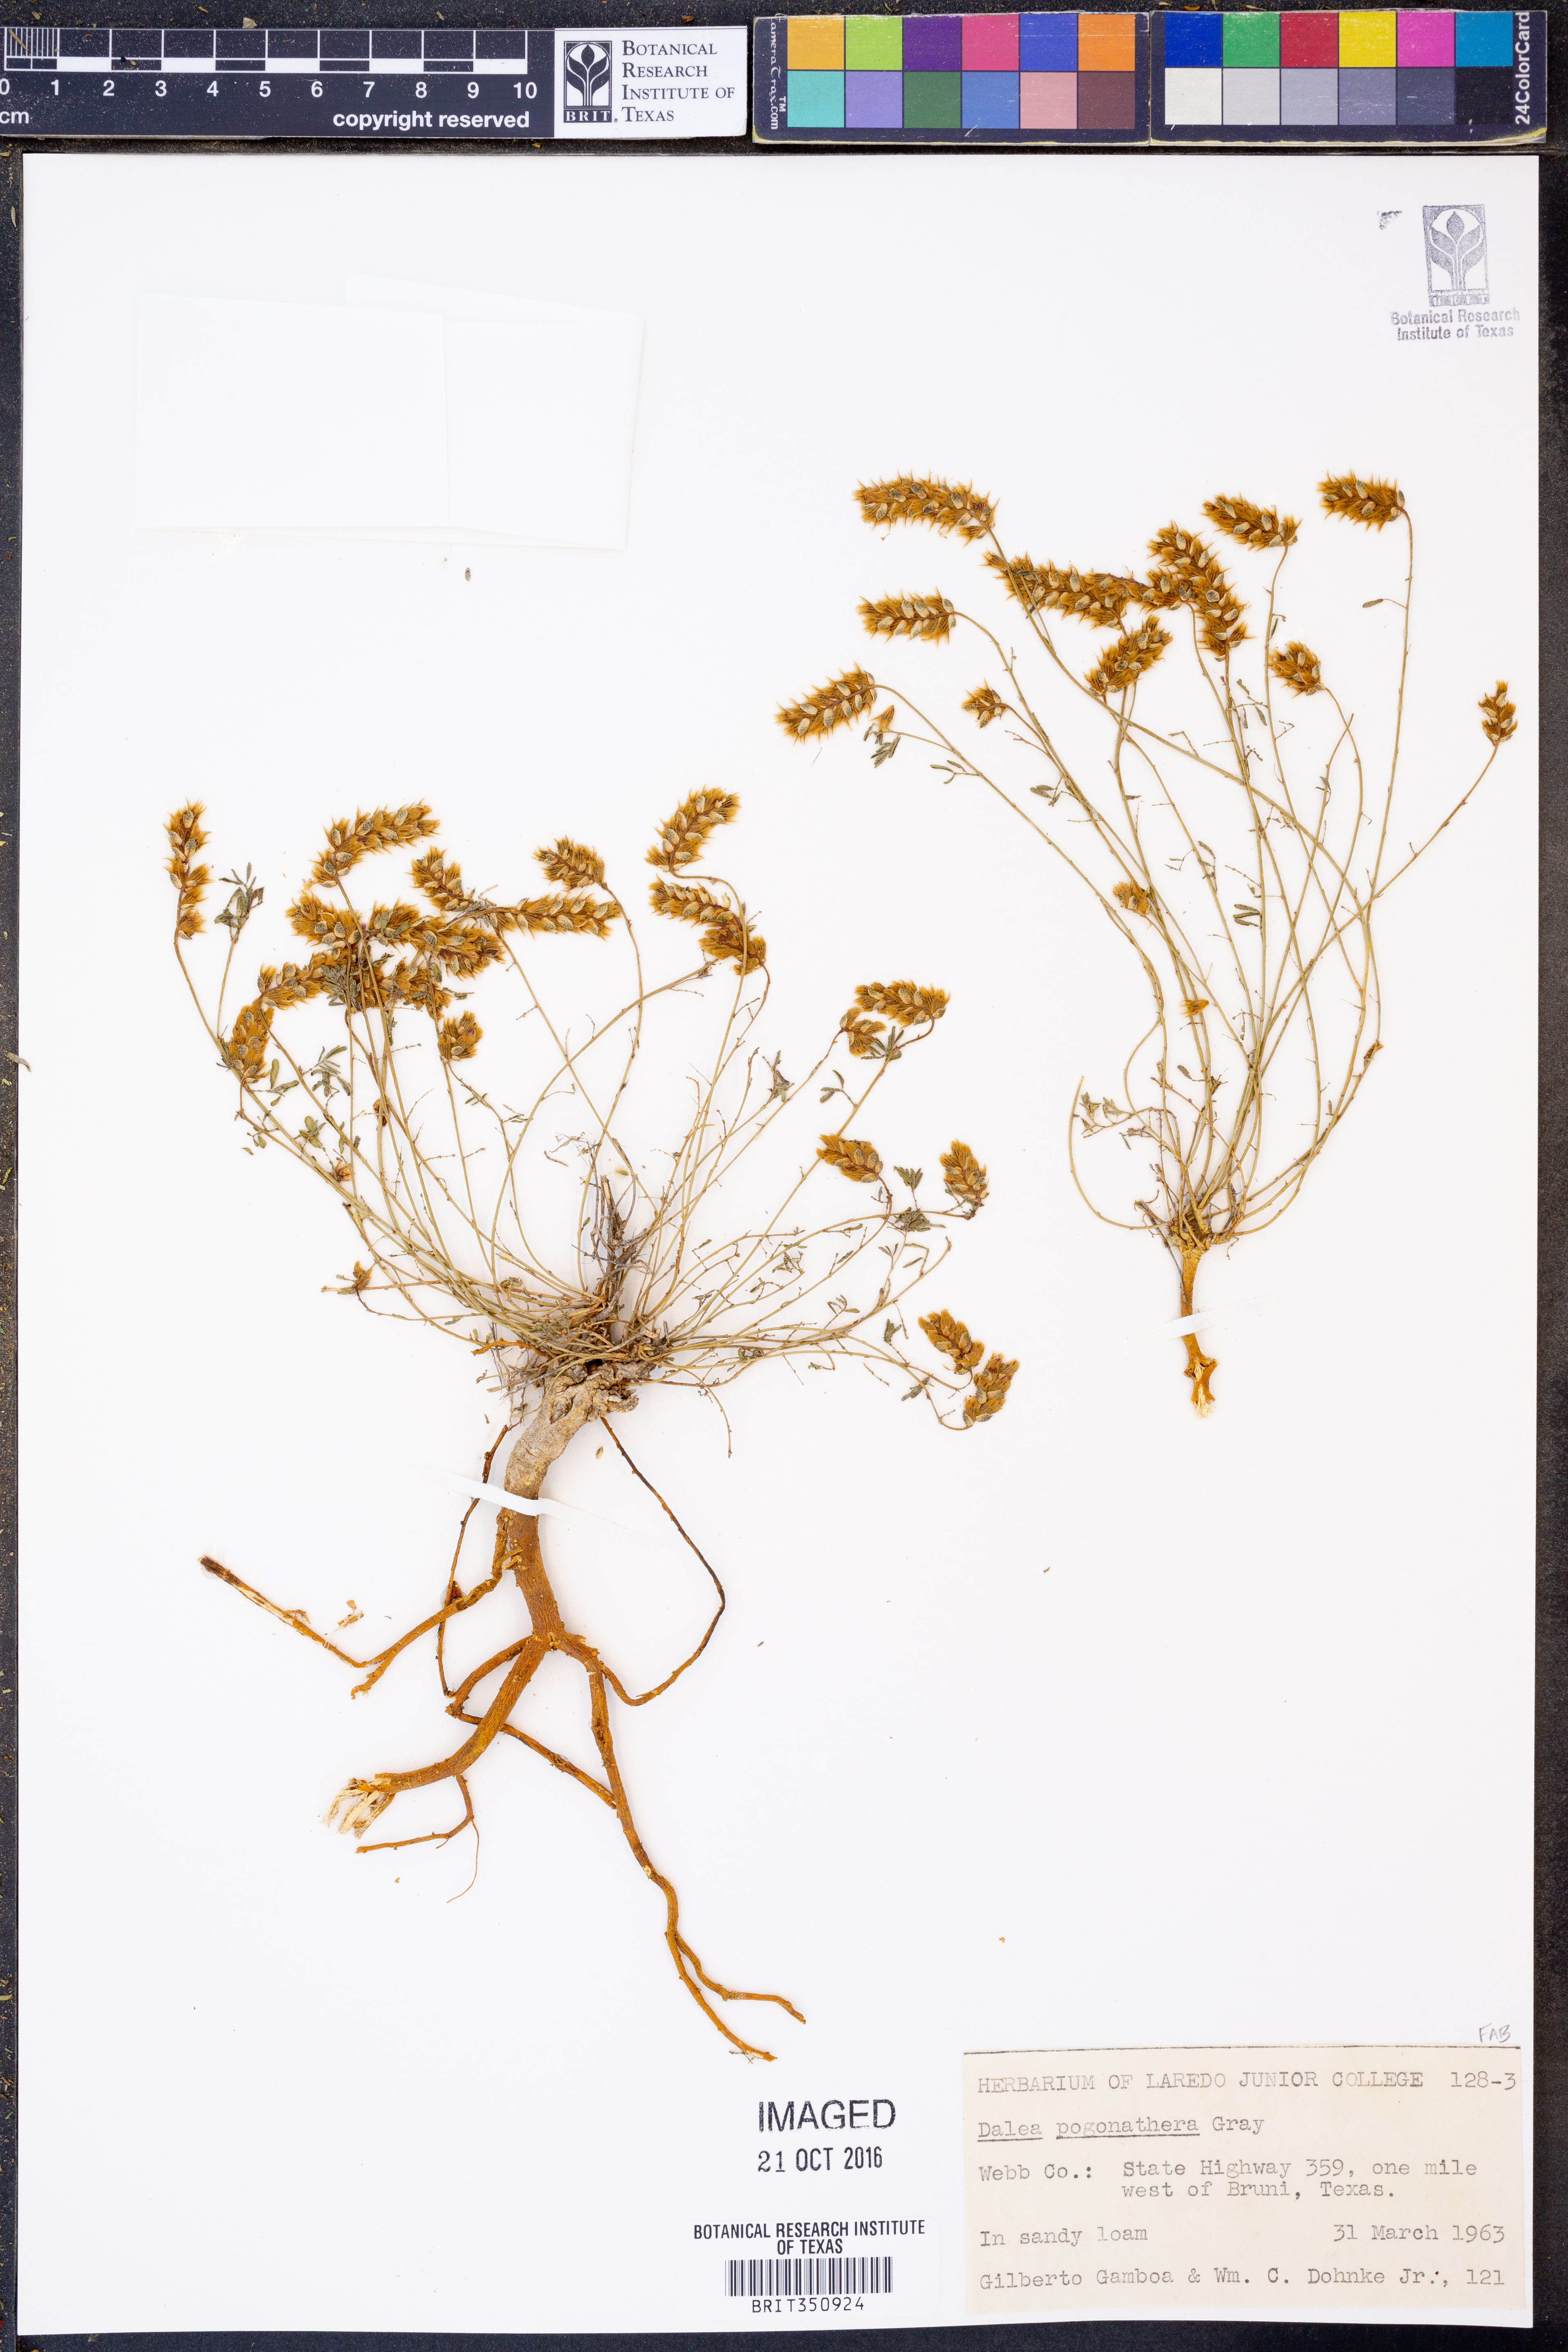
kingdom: Plantae
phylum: Tracheophyta
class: Magnoliopsida
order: Fabales
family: Fabaceae
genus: Dalea
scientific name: Dalea pogonathera
